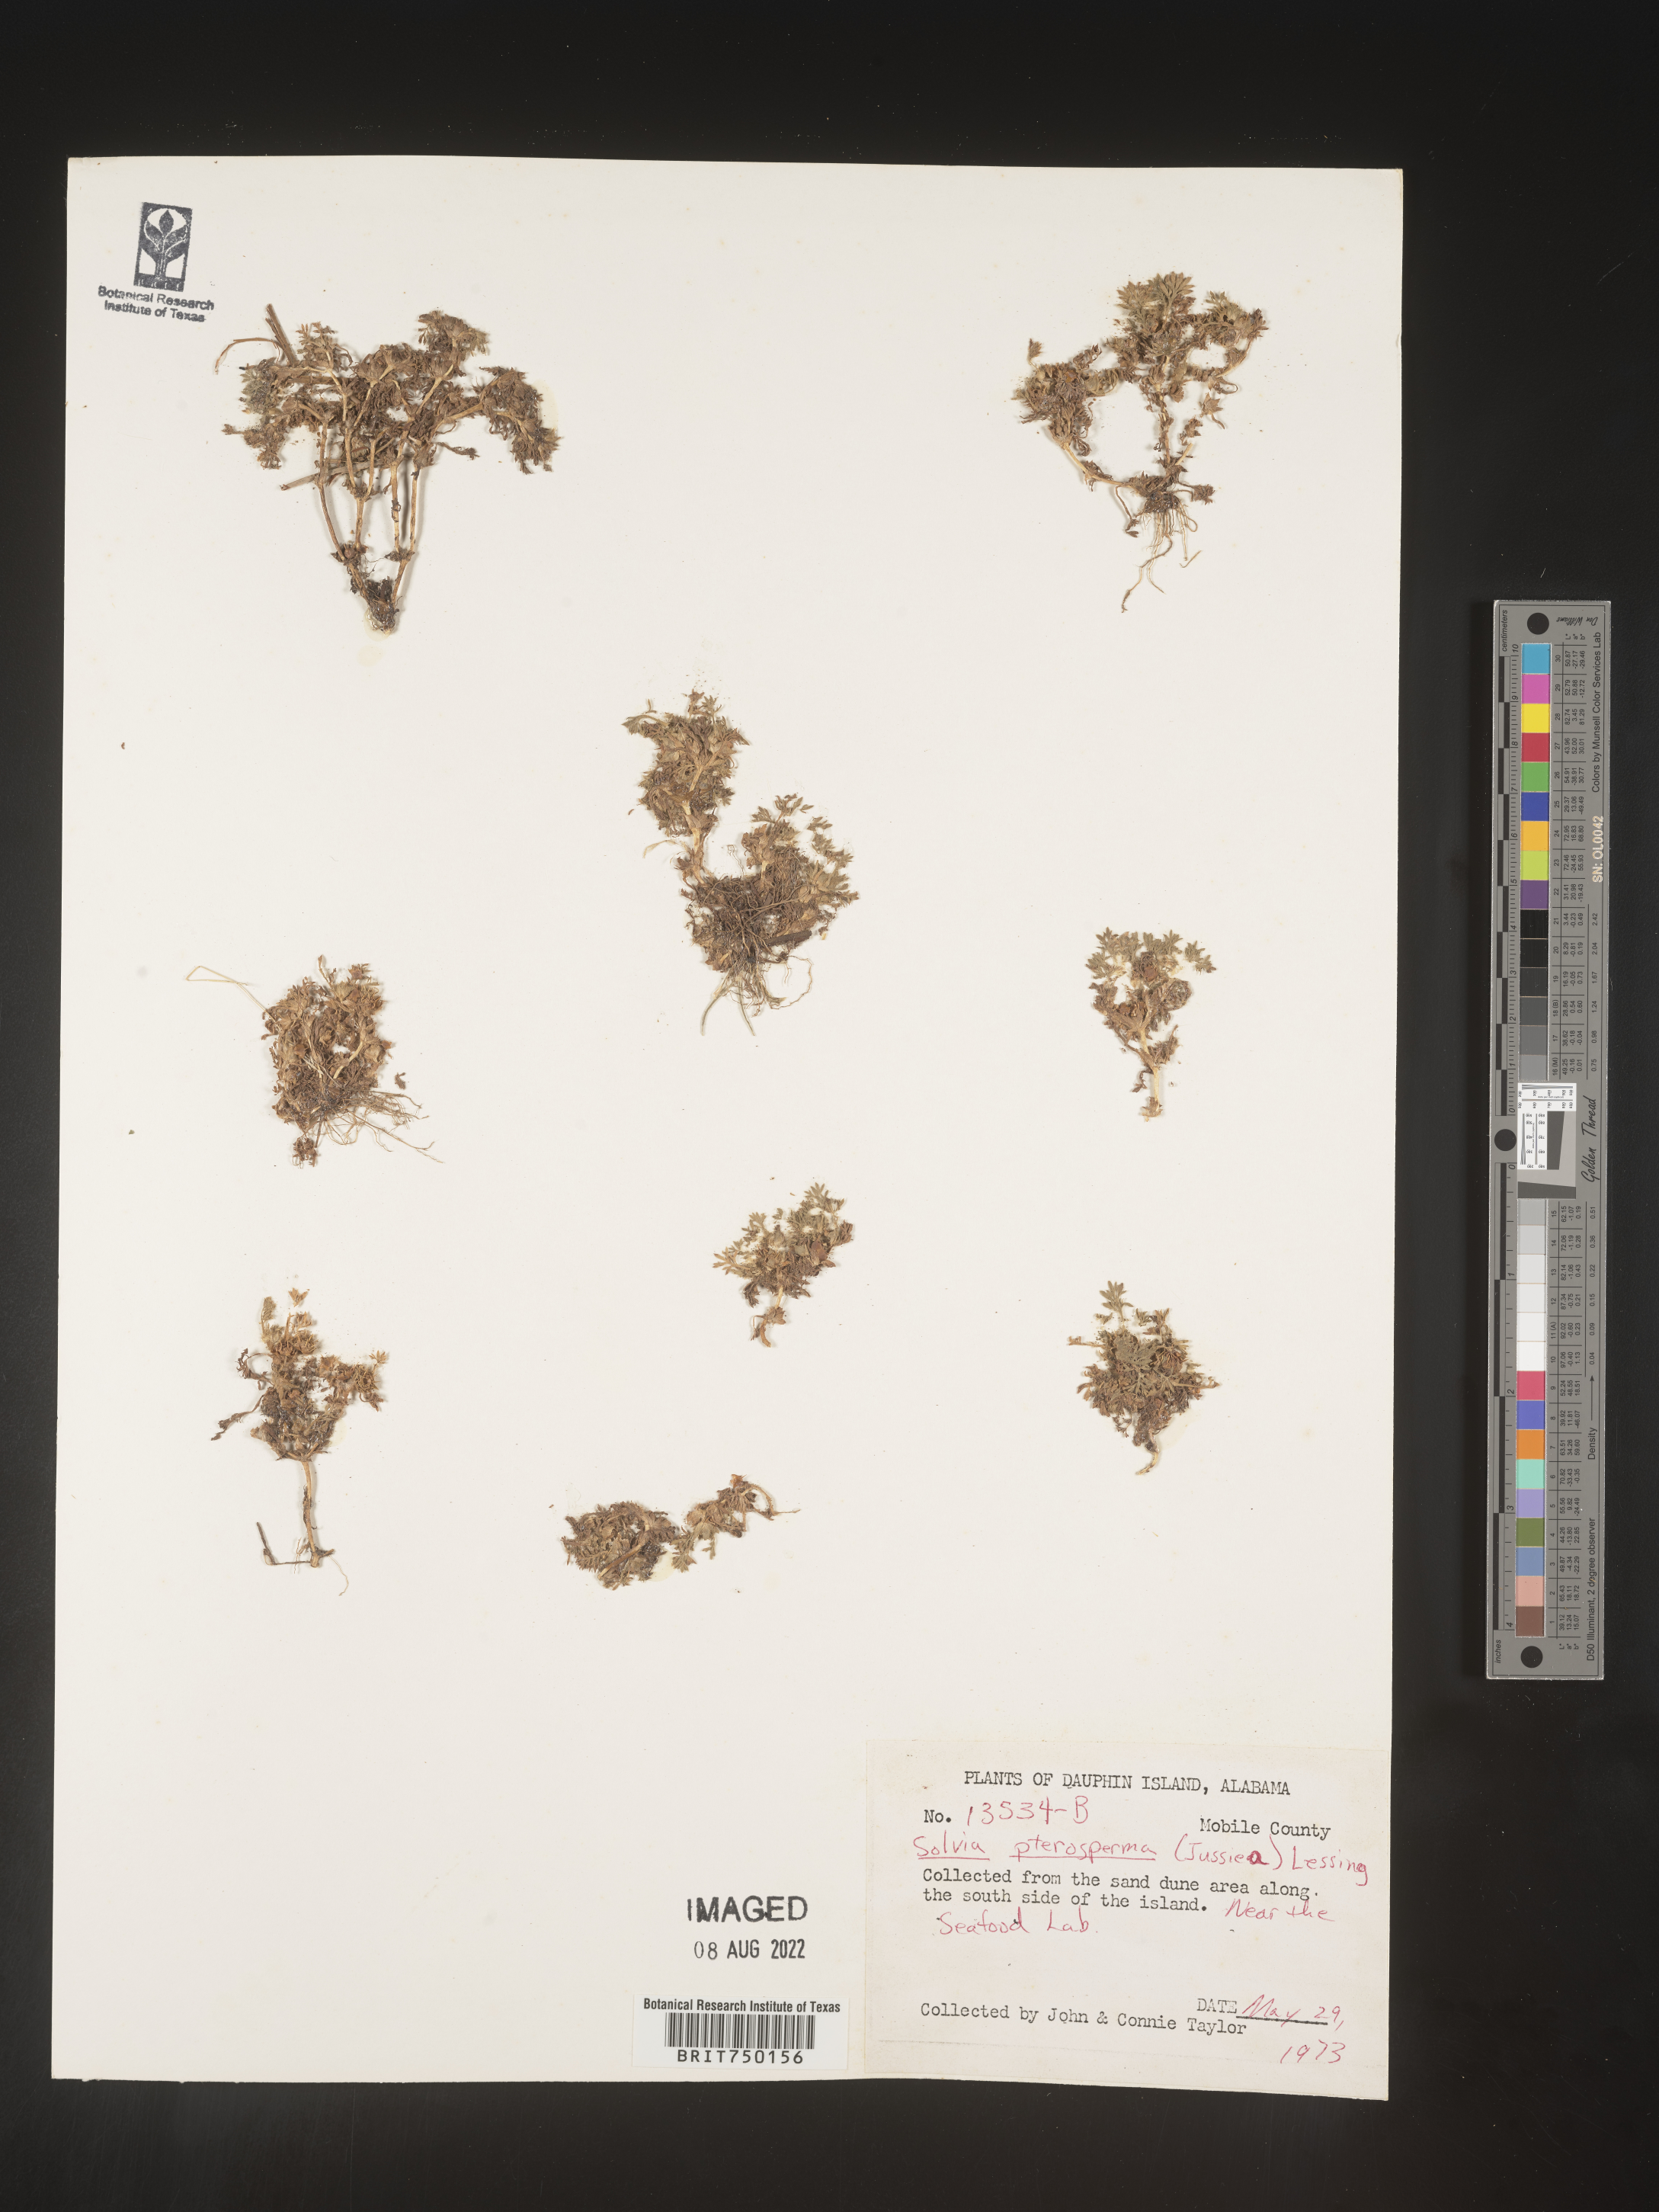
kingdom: Plantae
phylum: Tracheophyta
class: Magnoliopsida
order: Asterales
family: Asteraceae
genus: Soliva
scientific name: Soliva sessilis
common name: Field burrweed
